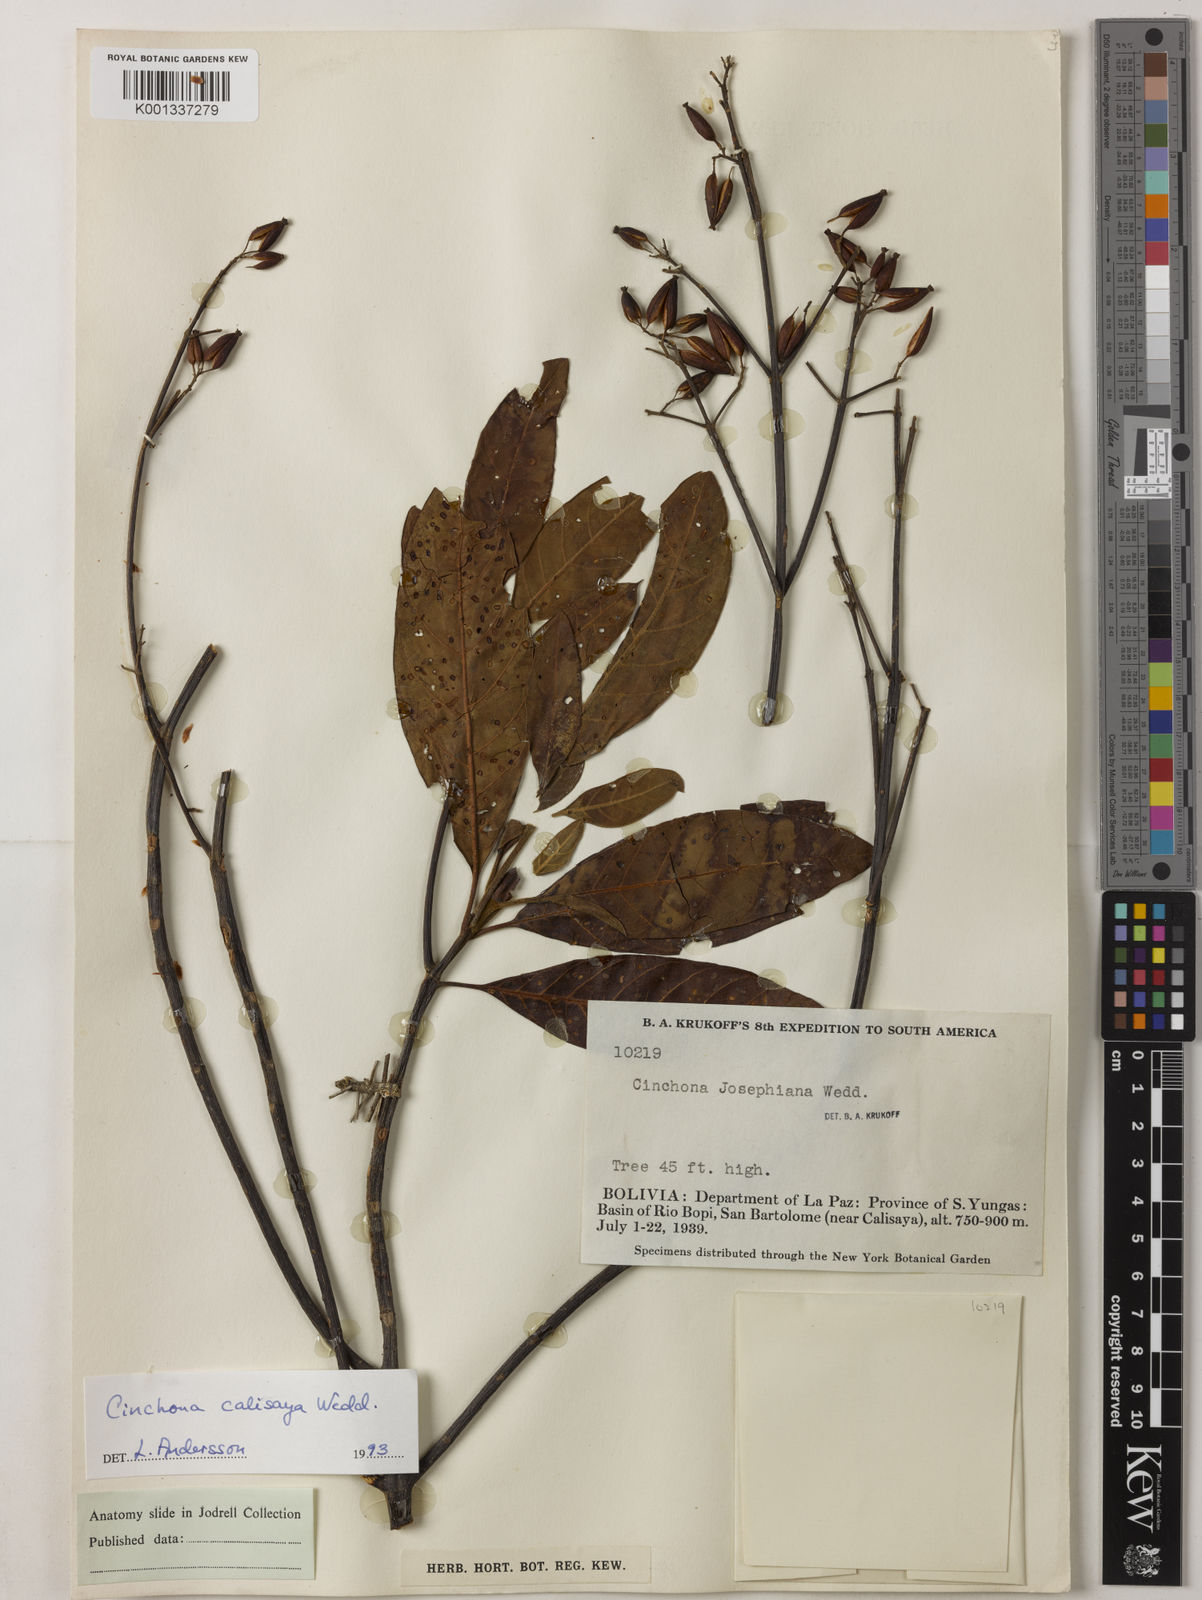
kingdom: Plantae
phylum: Tracheophyta
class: Magnoliopsida
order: Gentianales
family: Rubiaceae
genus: Cinchona
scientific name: Cinchona calisaya
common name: Ledgerbark
